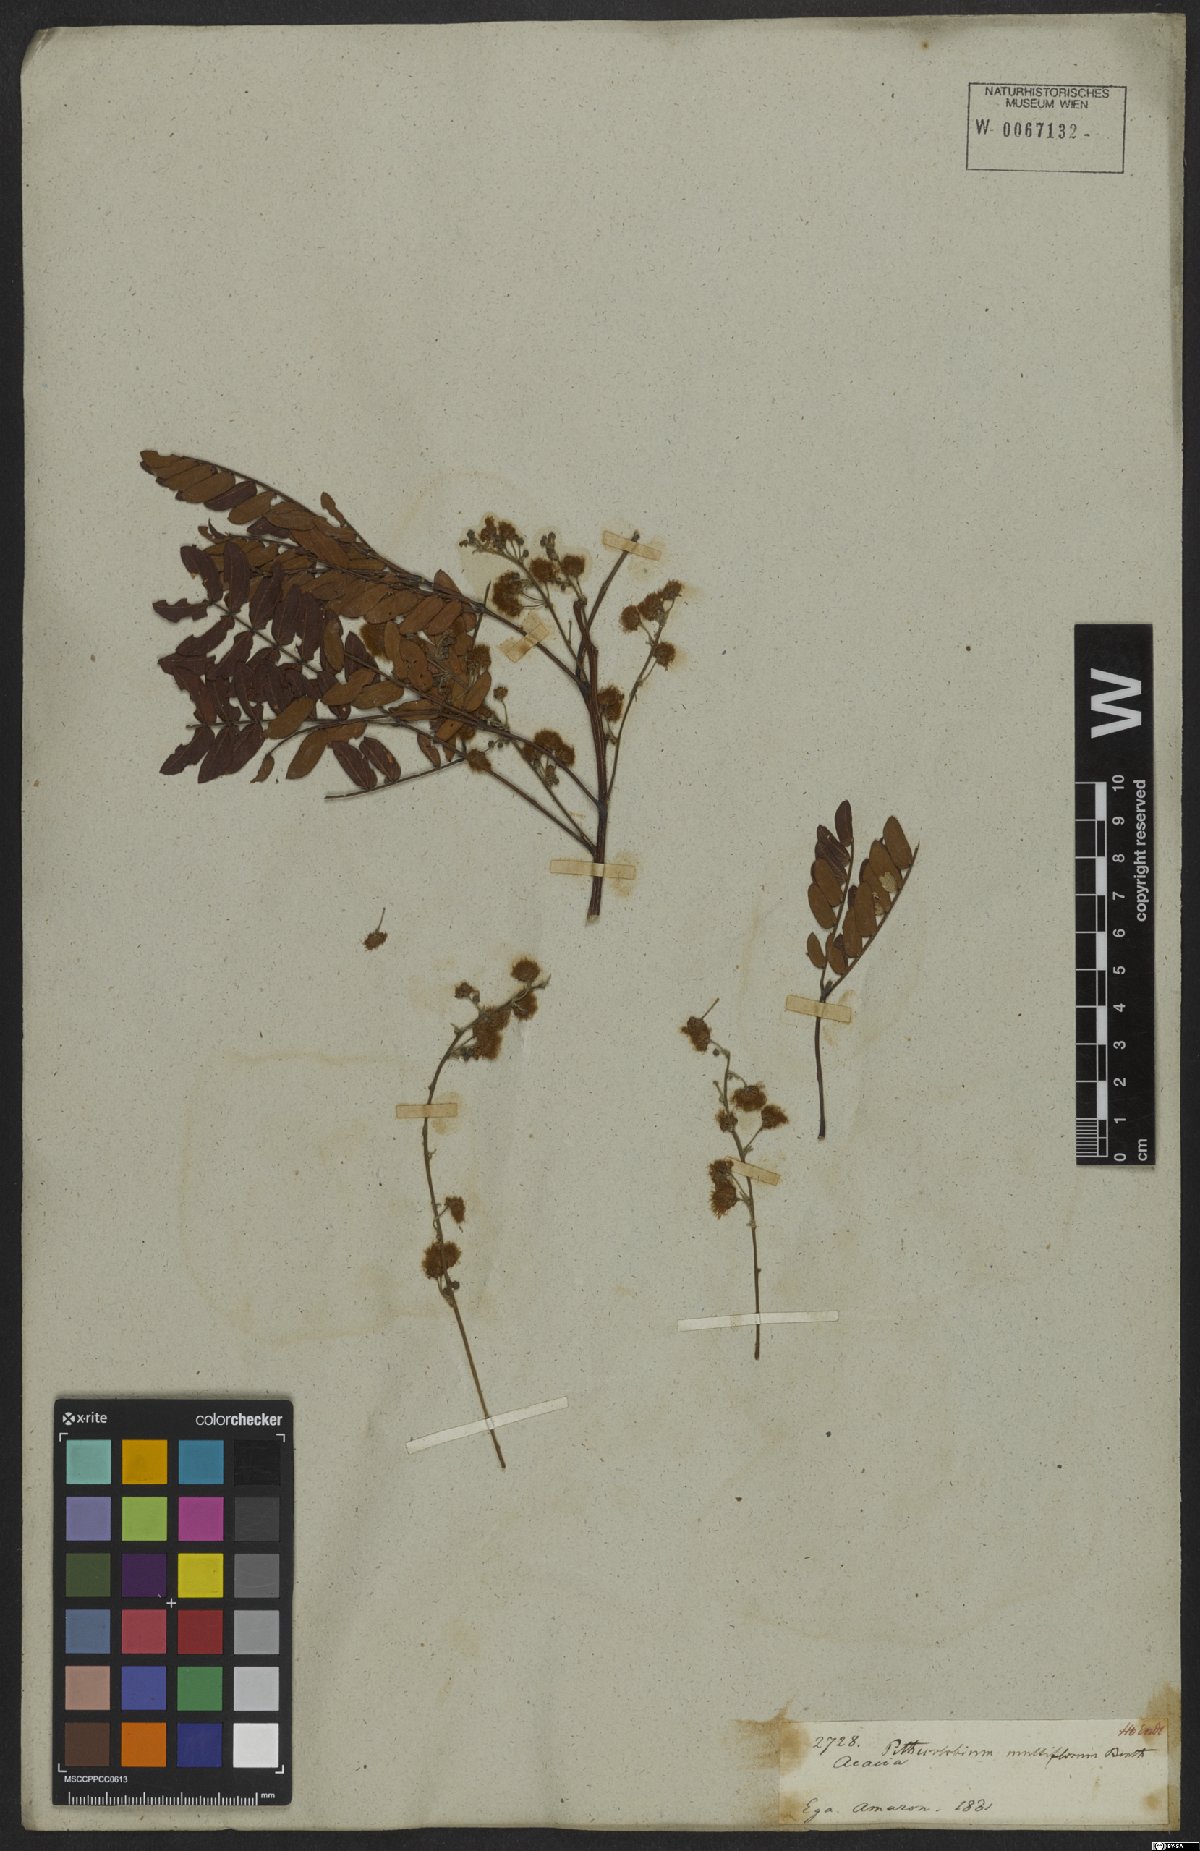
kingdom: Plantae
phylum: Tracheophyta
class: Magnoliopsida
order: Fabales
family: Fabaceae
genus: Albizia
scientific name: Albizia multiflora
